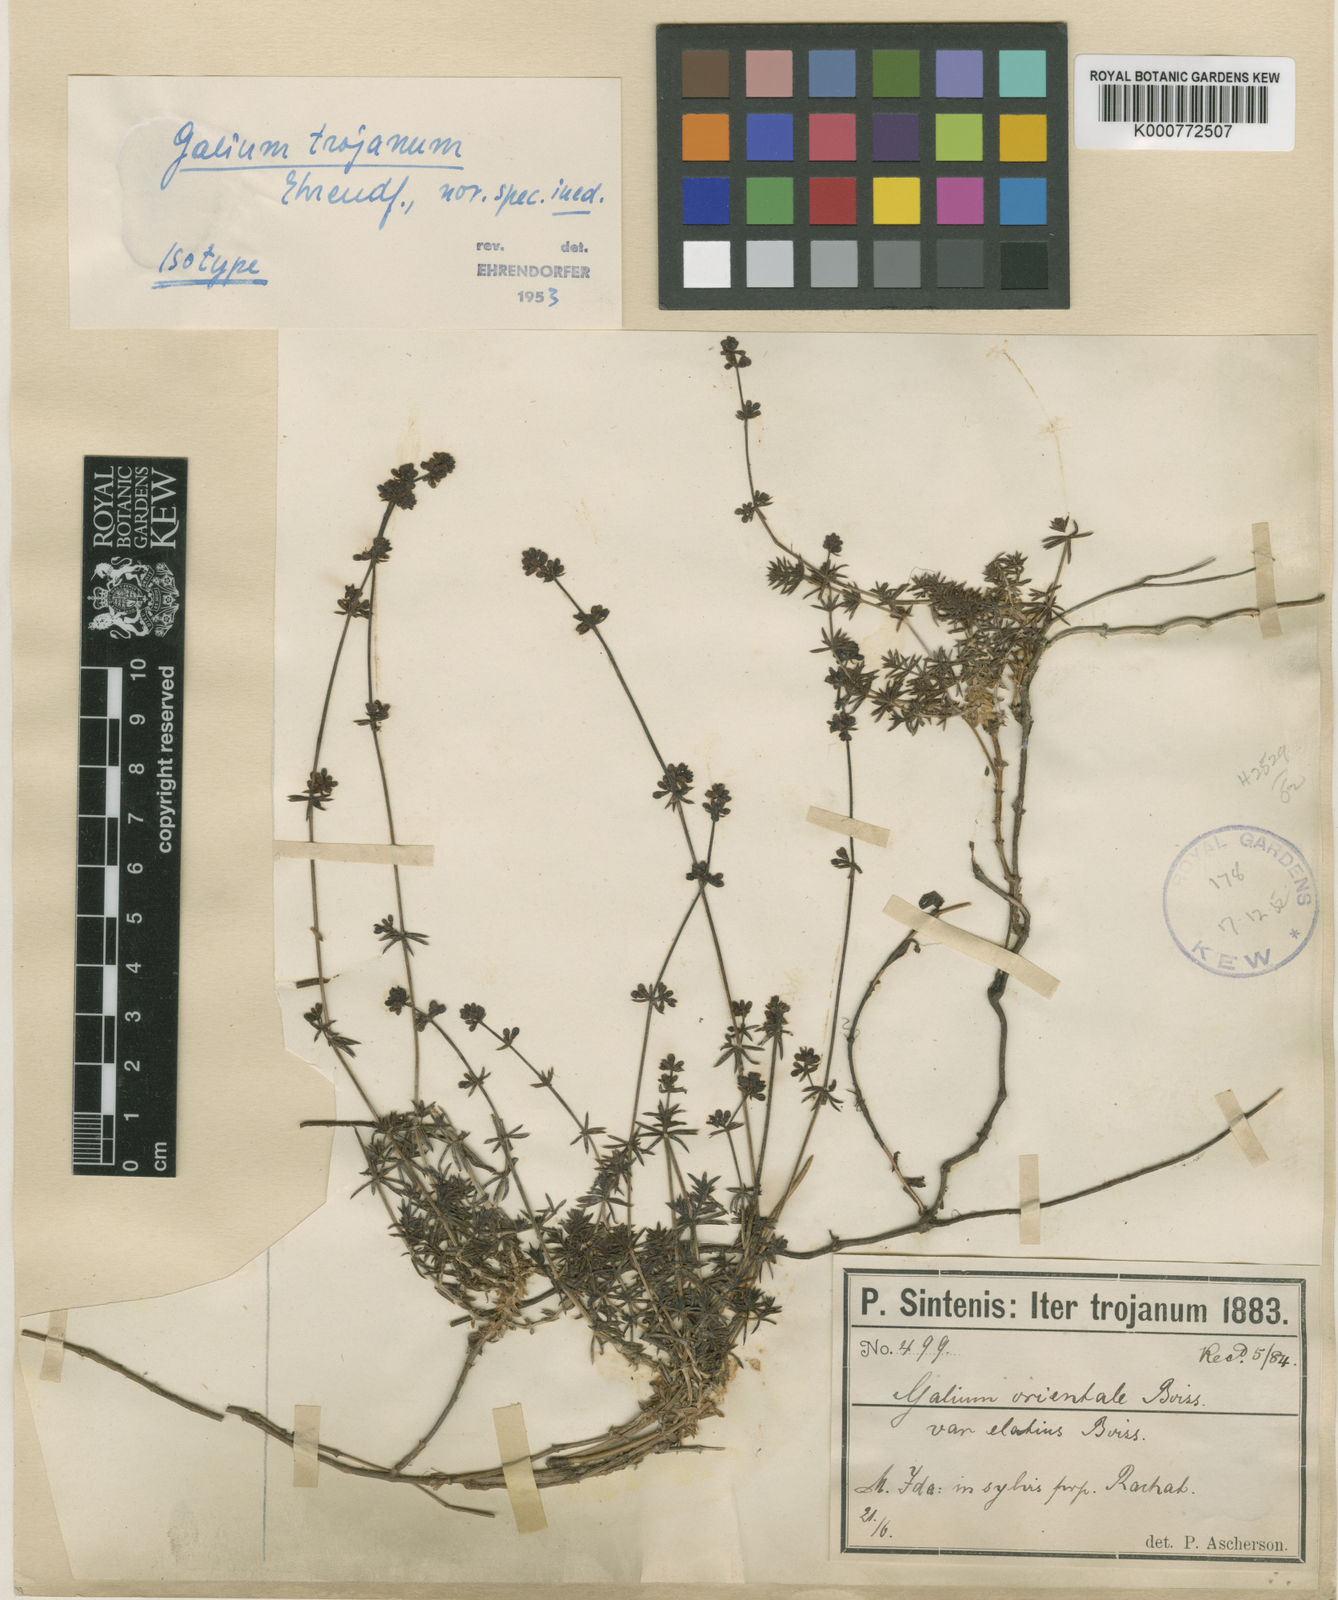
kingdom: Plantae
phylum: Tracheophyta
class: Magnoliopsida
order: Gentianales
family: Rubiaceae
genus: Galium
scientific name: Galium trojanum
